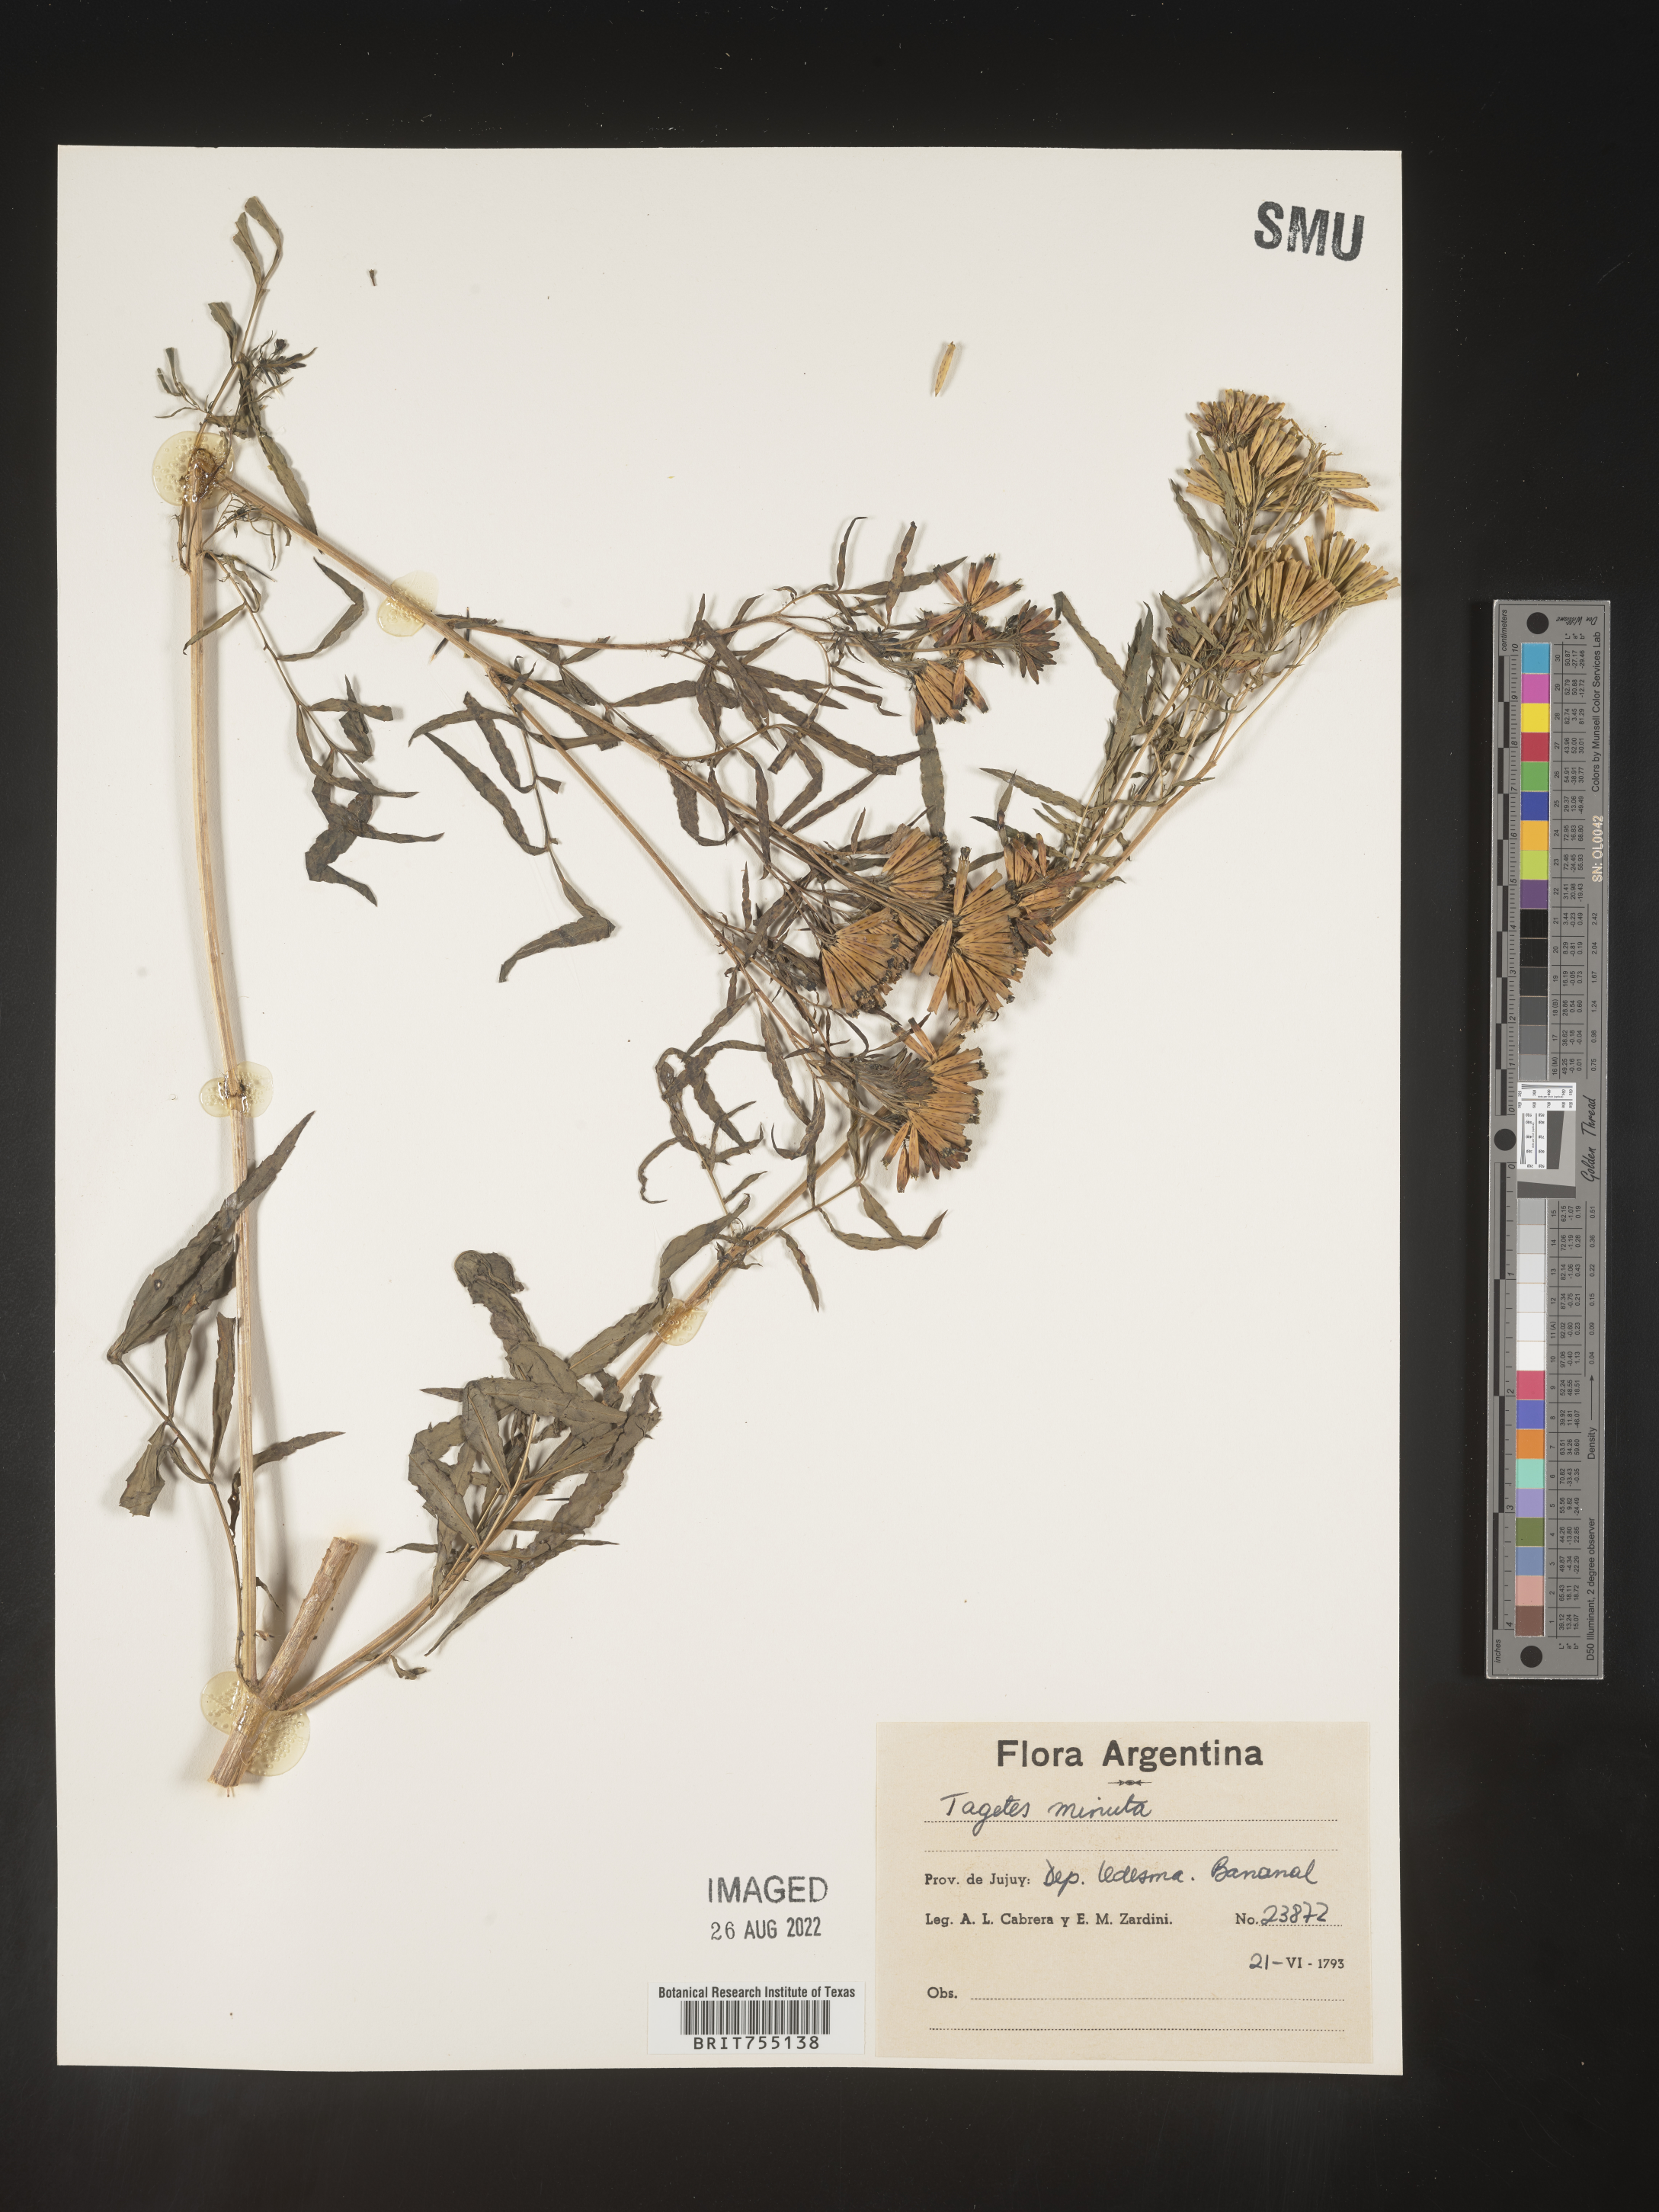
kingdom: Plantae
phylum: Tracheophyta
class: Magnoliopsida
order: Asterales
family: Asteraceae
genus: Tagetes
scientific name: Tagetes
